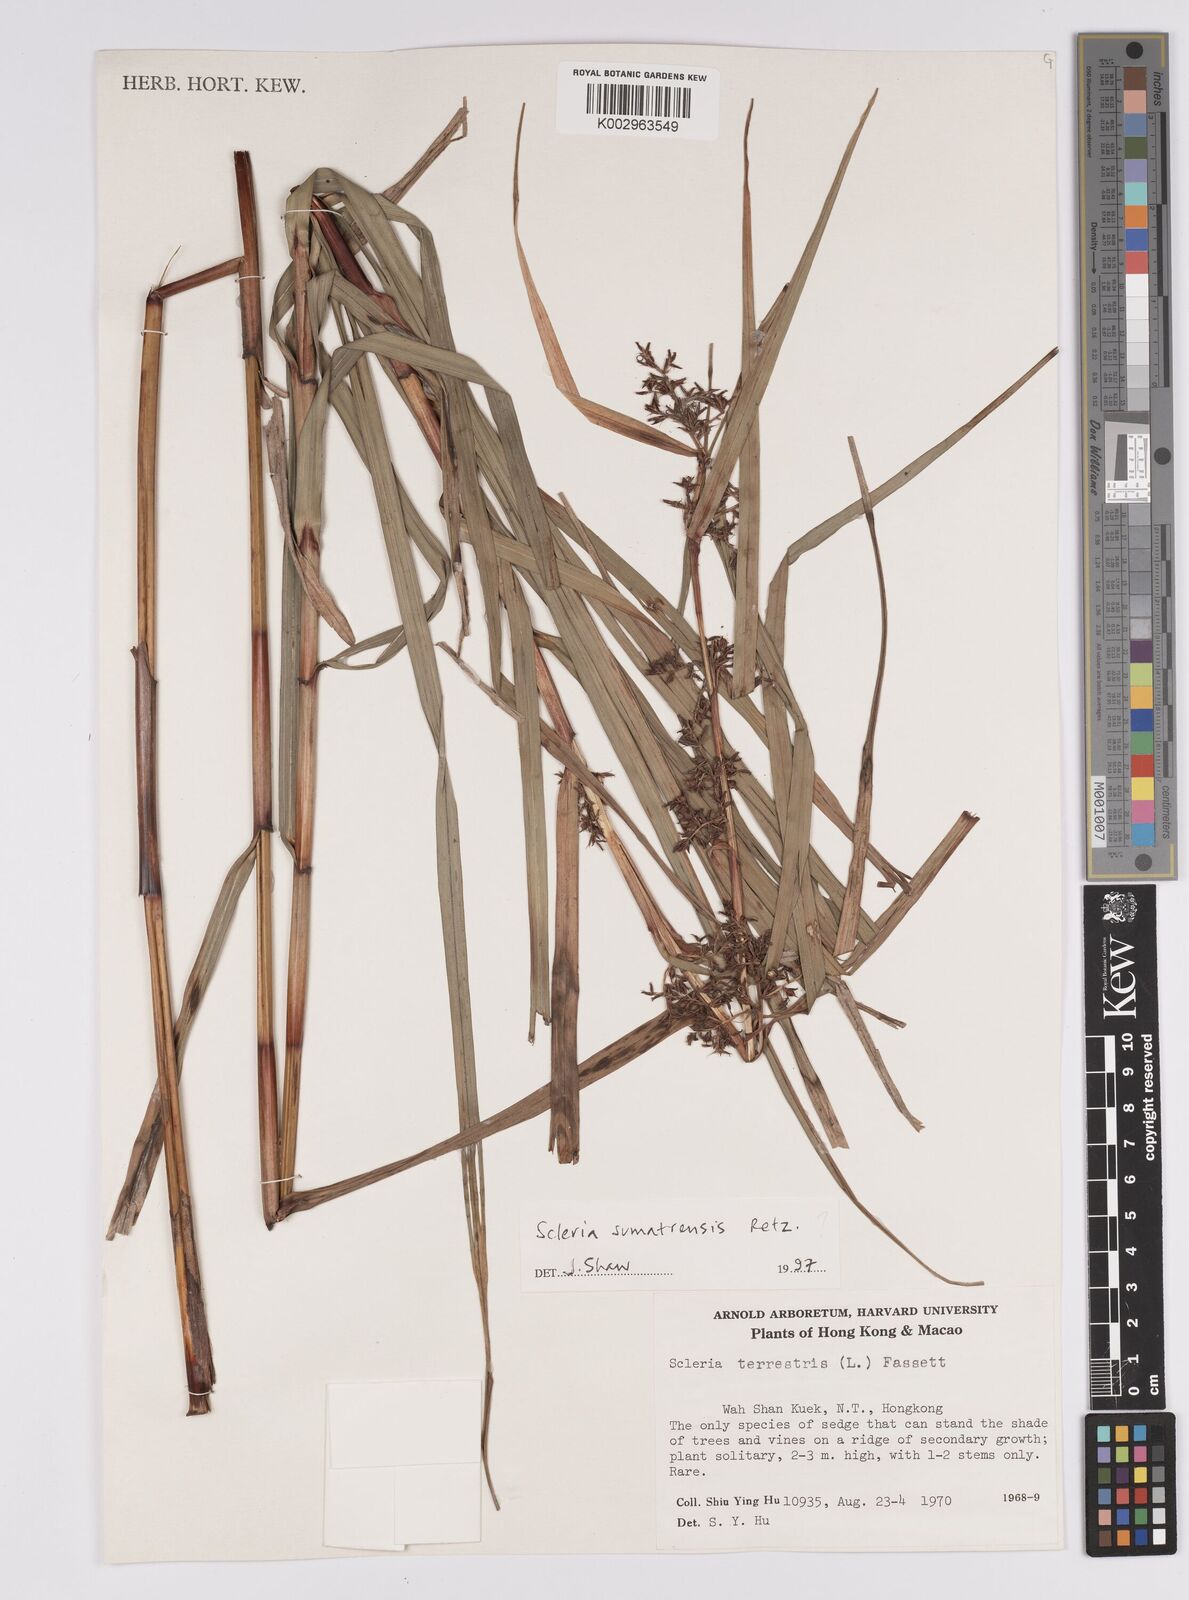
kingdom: Plantae
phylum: Tracheophyta
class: Liliopsida
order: Poales
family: Cyperaceae
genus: Scleria
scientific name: Scleria sumatrensis
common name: Sumatran scleria
